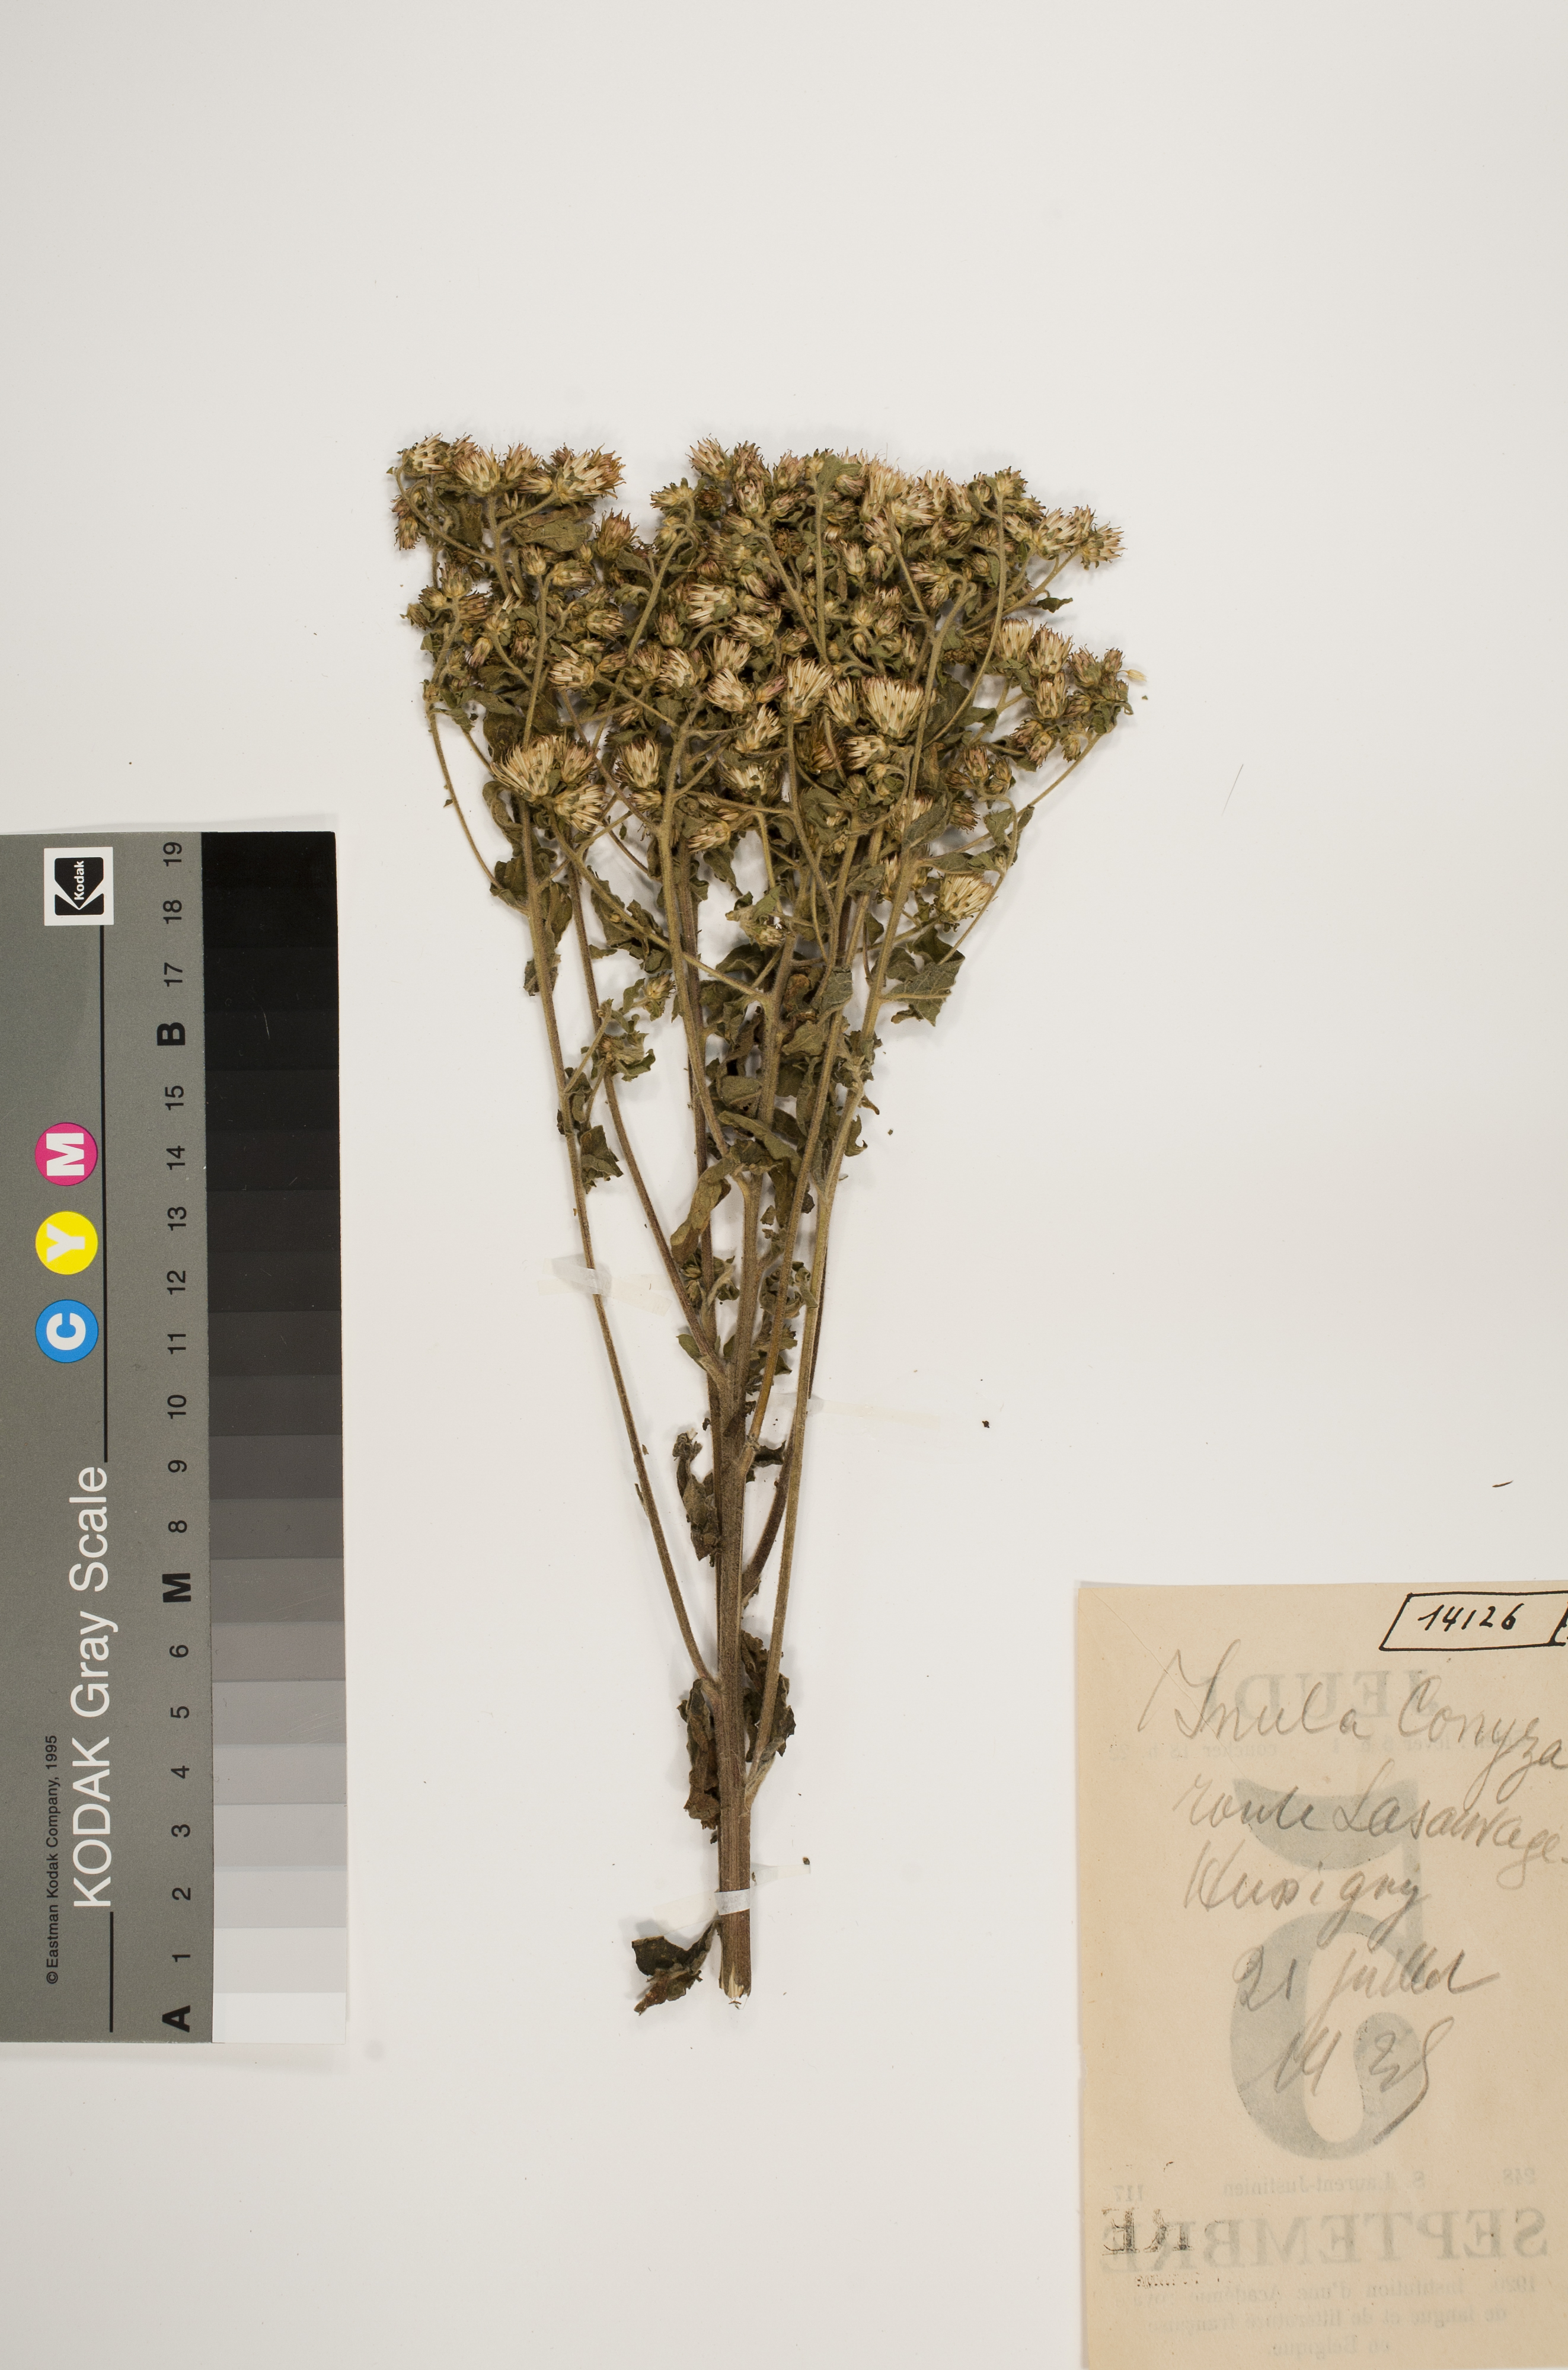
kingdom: Plantae
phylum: Tracheophyta
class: Magnoliopsida
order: Asterales
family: Asteraceae
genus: Pentanema
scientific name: Pentanema squarrosum
